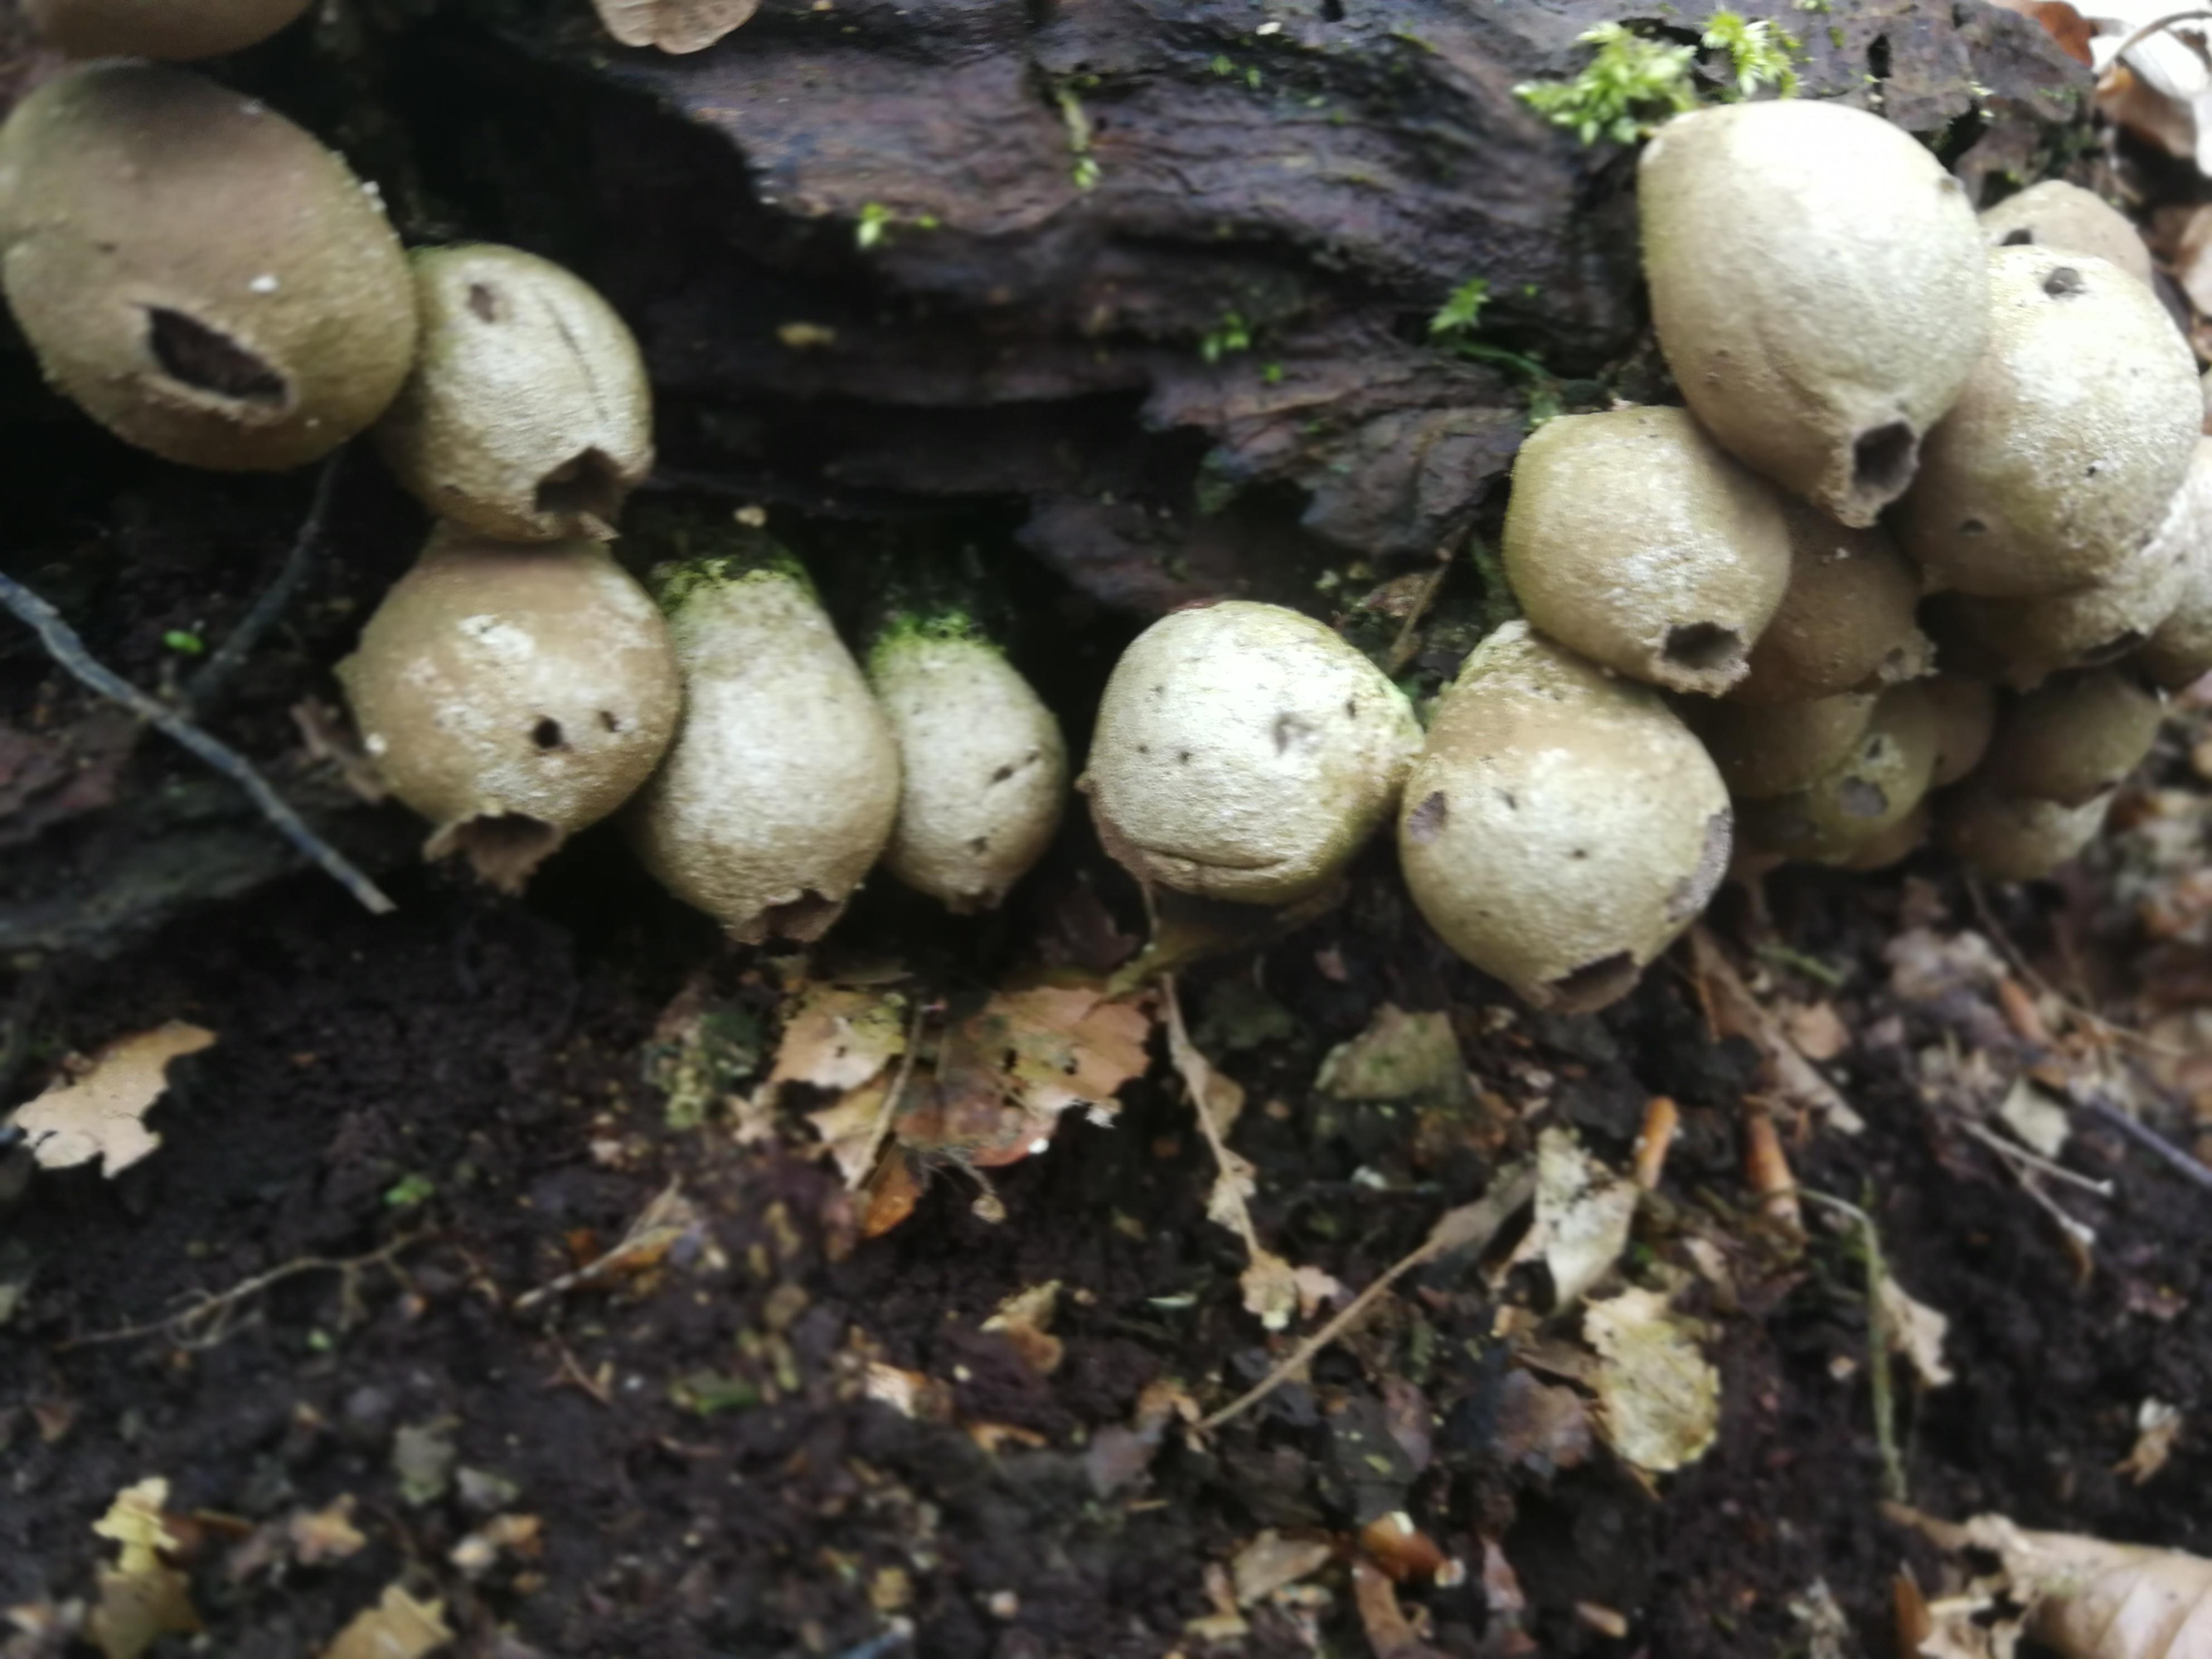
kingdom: Fungi
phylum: Basidiomycota
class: Agaricomycetes
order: Agaricales
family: Lycoperdaceae
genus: Apioperdon
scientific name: Apioperdon pyriforme
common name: pære-støvbold
